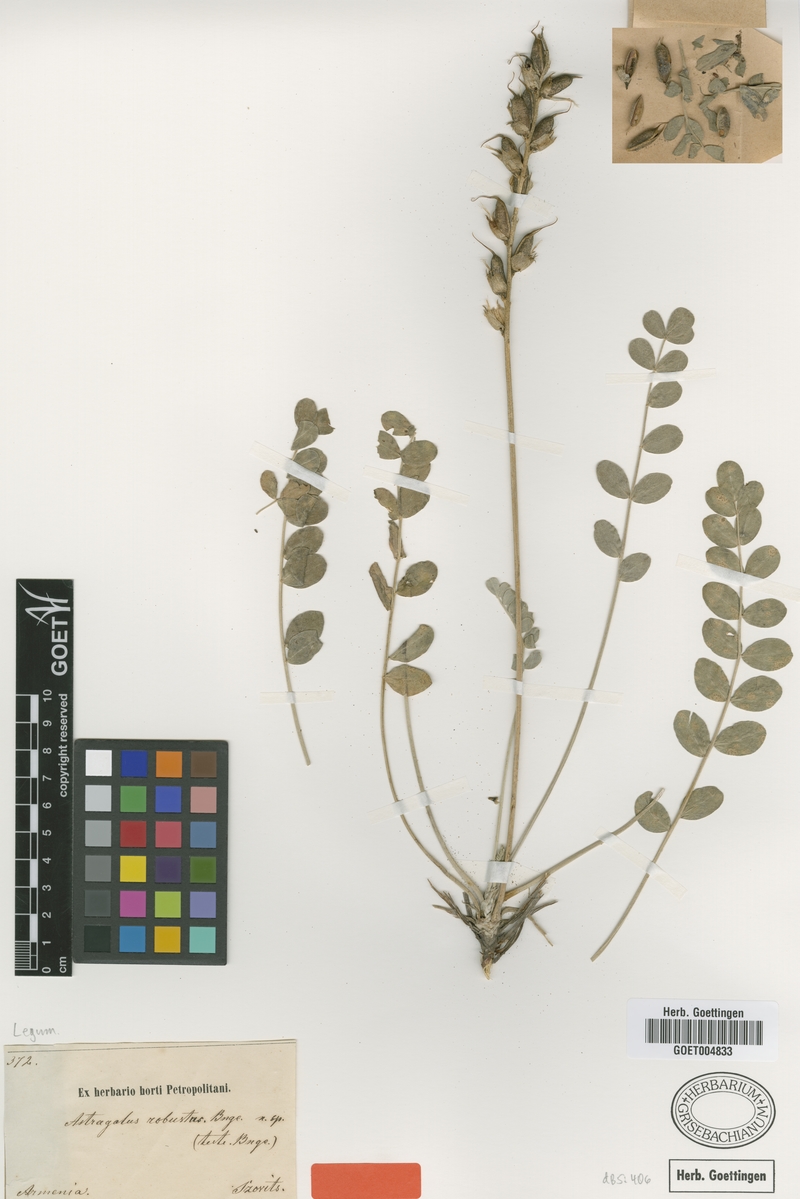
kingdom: Plantae
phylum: Tracheophyta
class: Magnoliopsida
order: Fabales
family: Fabaceae
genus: Astragalus
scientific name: Astragalus robustus
